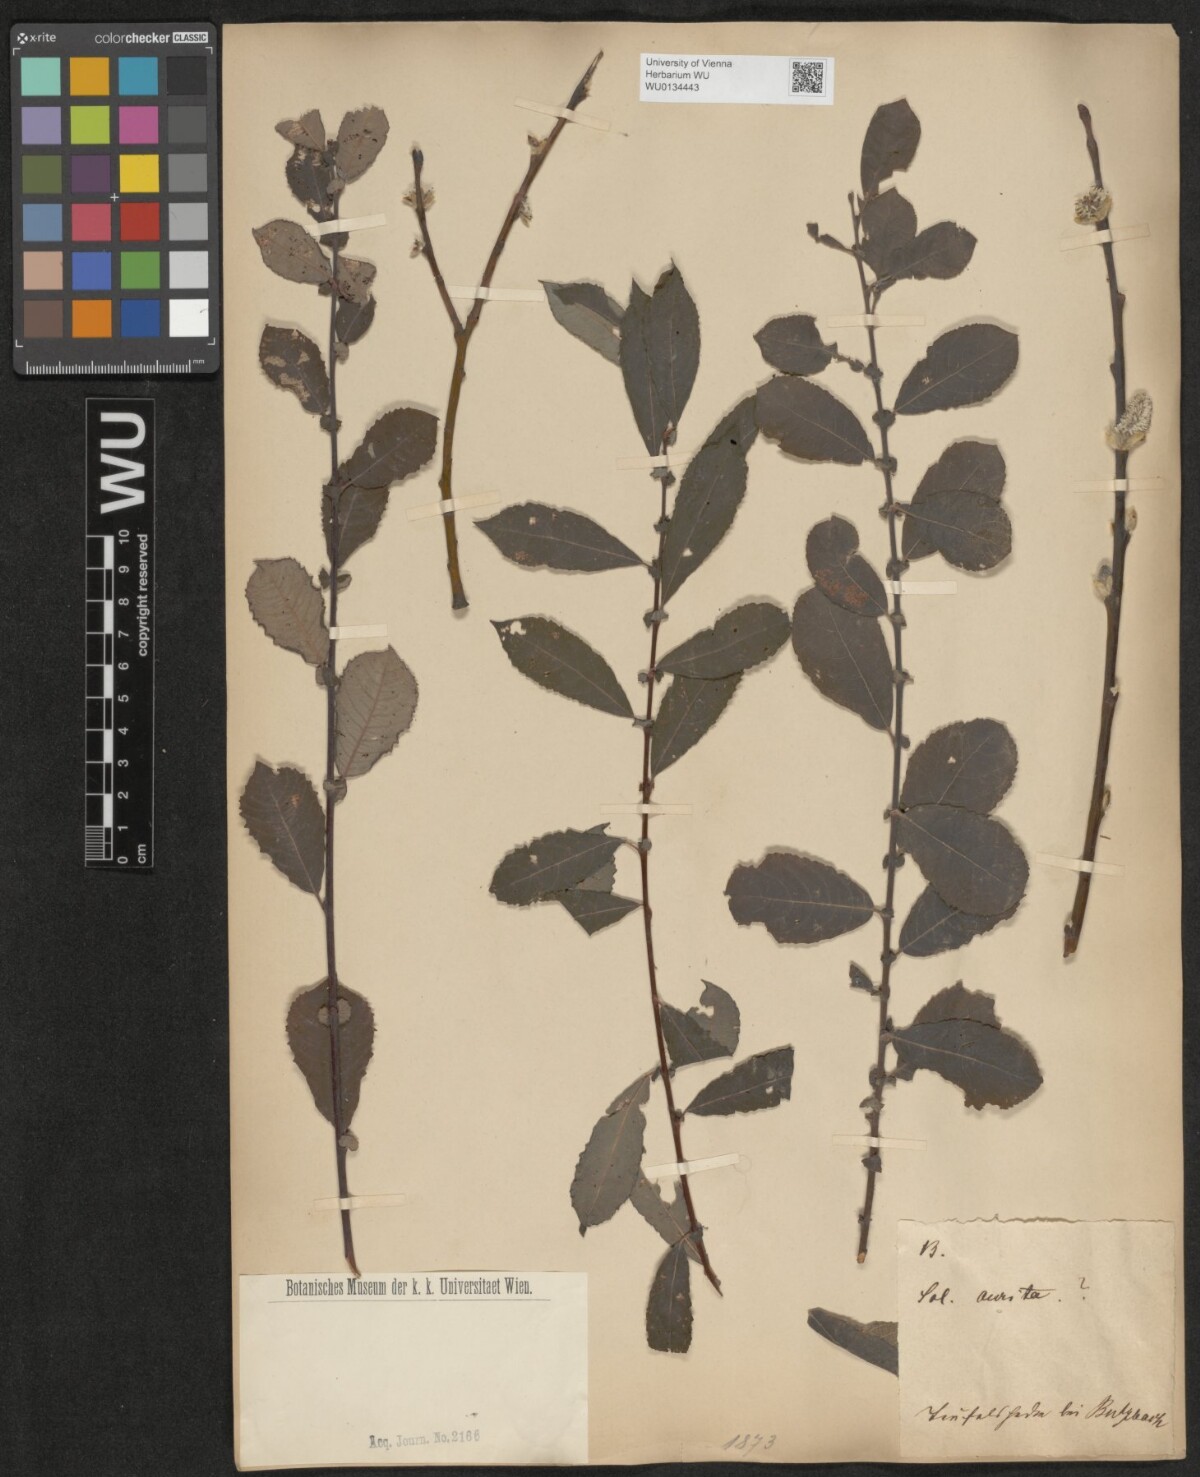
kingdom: Plantae
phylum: Tracheophyta
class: Magnoliopsida
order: Malpighiales
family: Salicaceae
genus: Salix
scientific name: Salix aurita
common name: Eared willow
